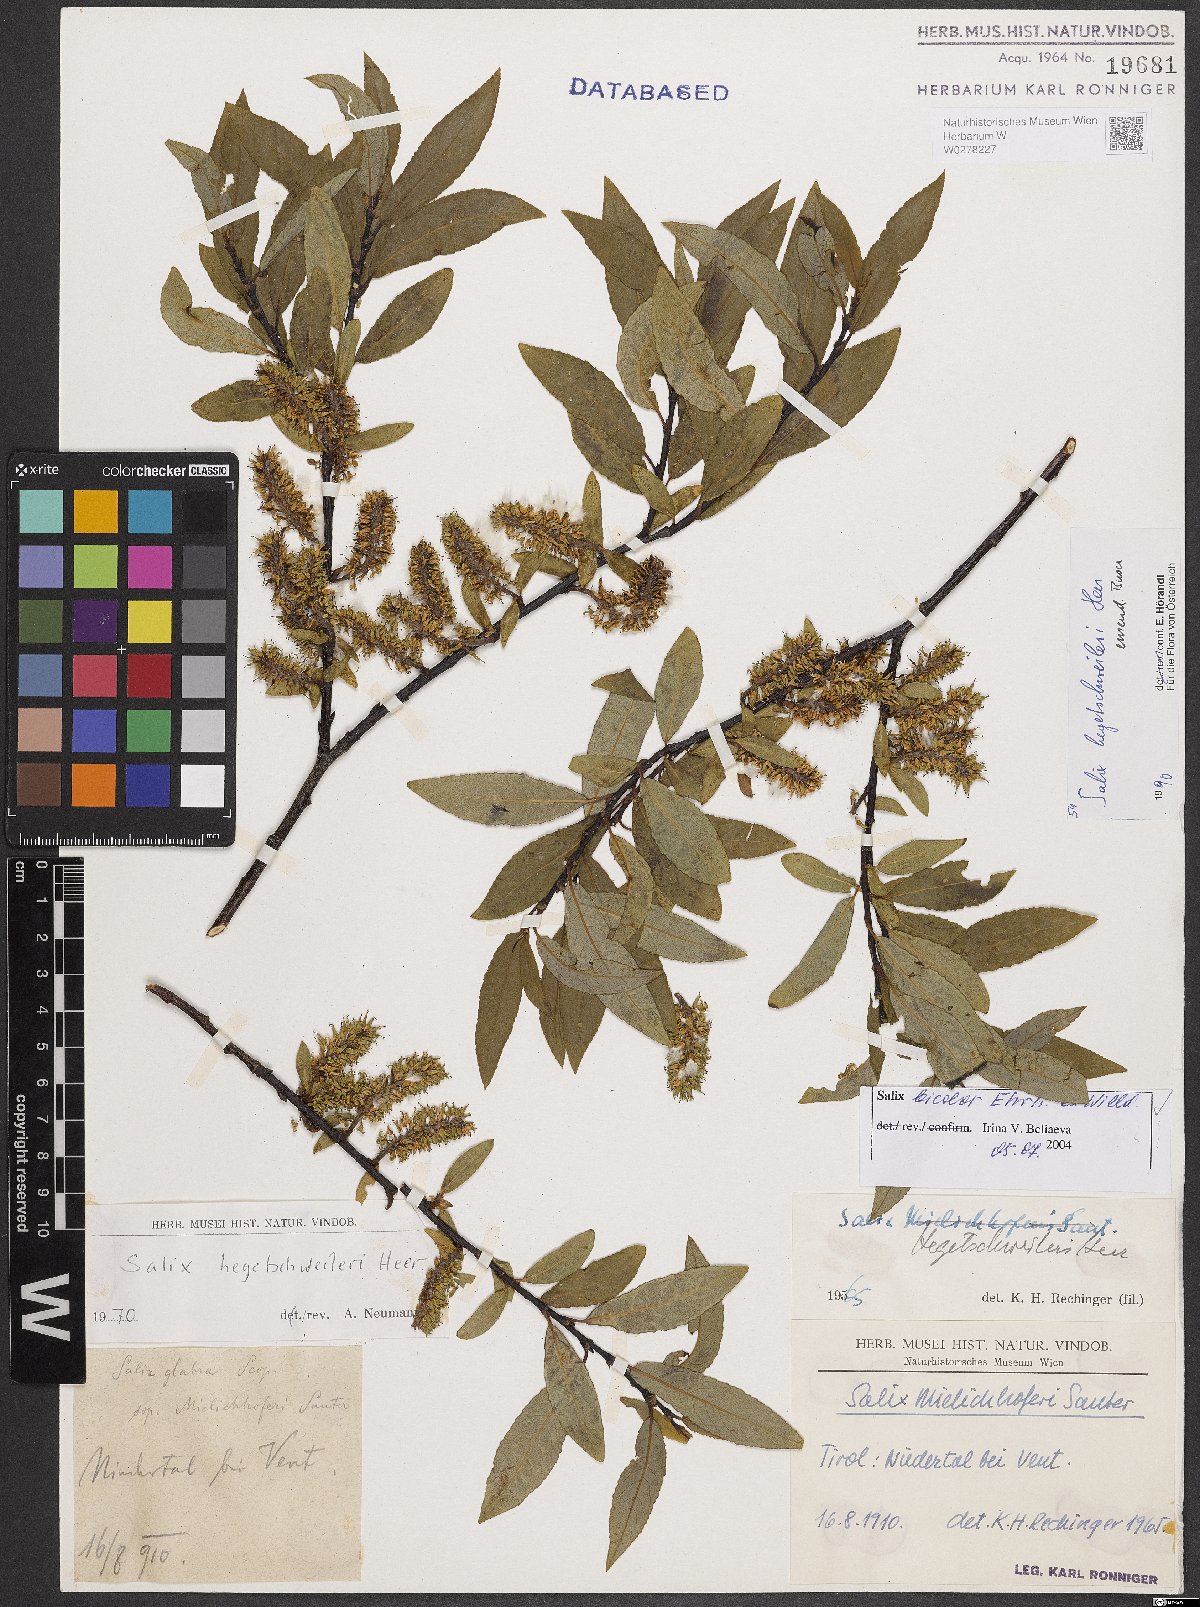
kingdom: Plantae
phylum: Tracheophyta
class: Magnoliopsida
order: Malpighiales
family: Salicaceae
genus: Salix
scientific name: Salix bicolor
